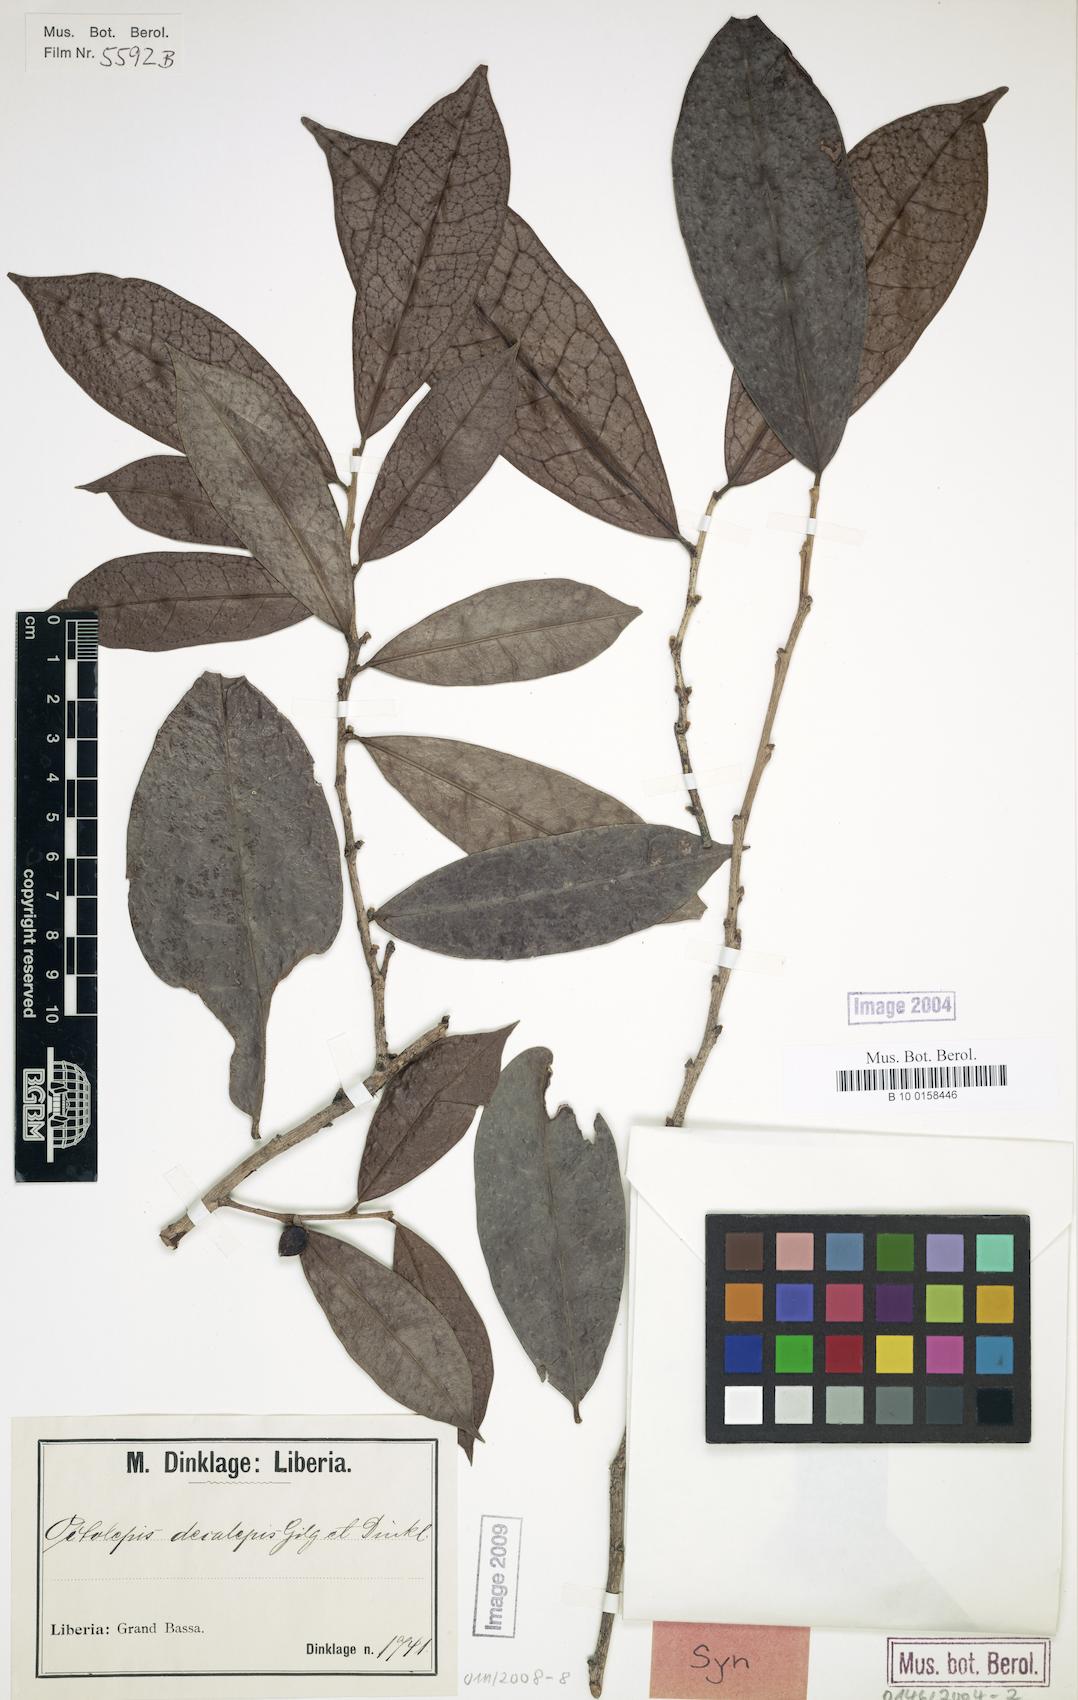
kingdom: Plantae
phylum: Tracheophyta
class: Magnoliopsida
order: Malvales
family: Thymelaeaceae
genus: Octolepis
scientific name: Octolepis decalepis
